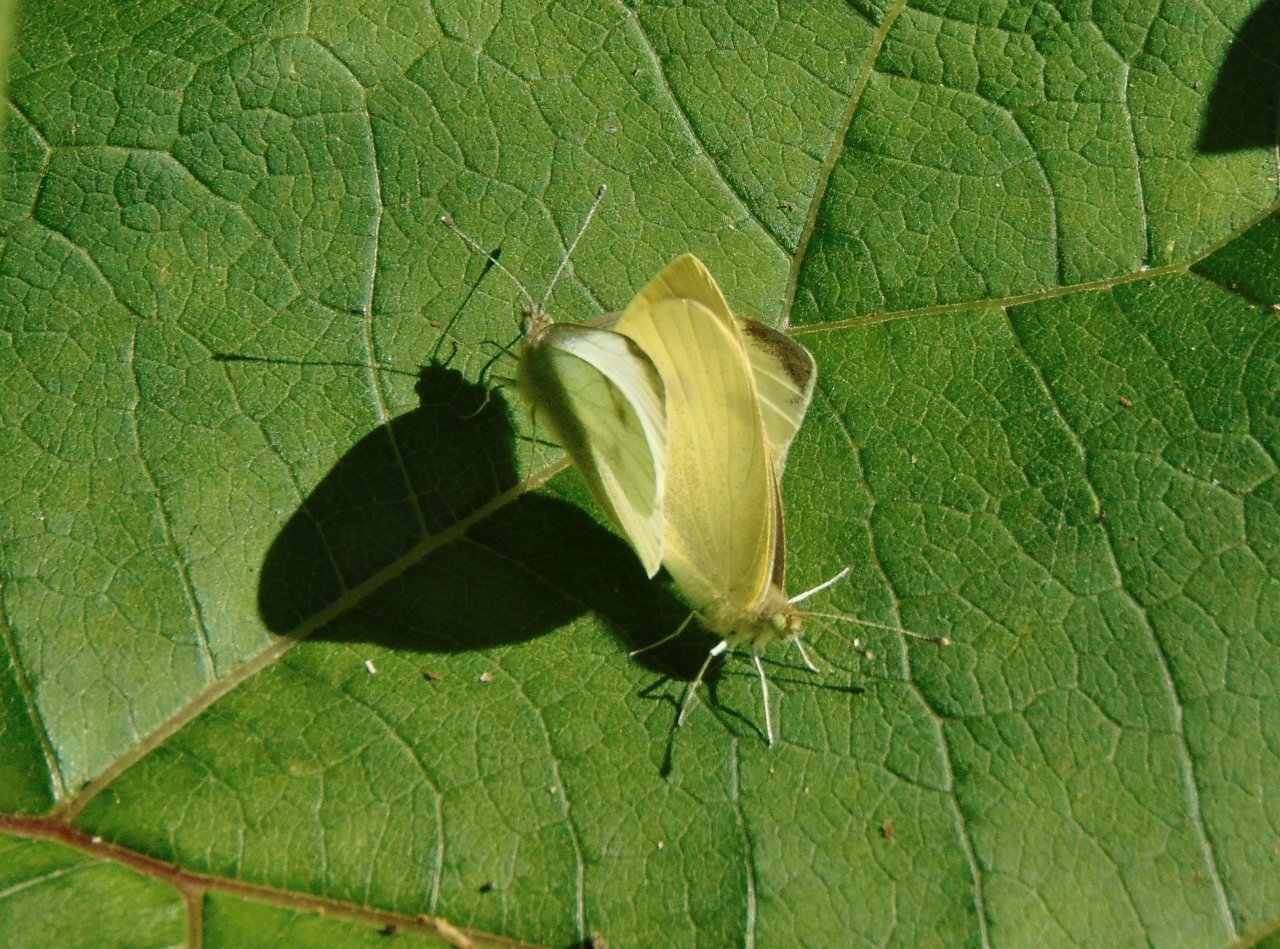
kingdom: Animalia
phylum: Arthropoda
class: Insecta
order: Lepidoptera
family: Pieridae
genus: Pieris
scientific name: Pieris rapae
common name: Cabbage White
